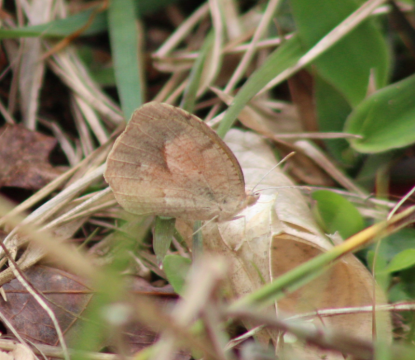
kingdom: Animalia
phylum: Arthropoda
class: Insecta
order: Lepidoptera
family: Pieridae
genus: Abaeis
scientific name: Abaeis nicippe
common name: Sleepy Orange
